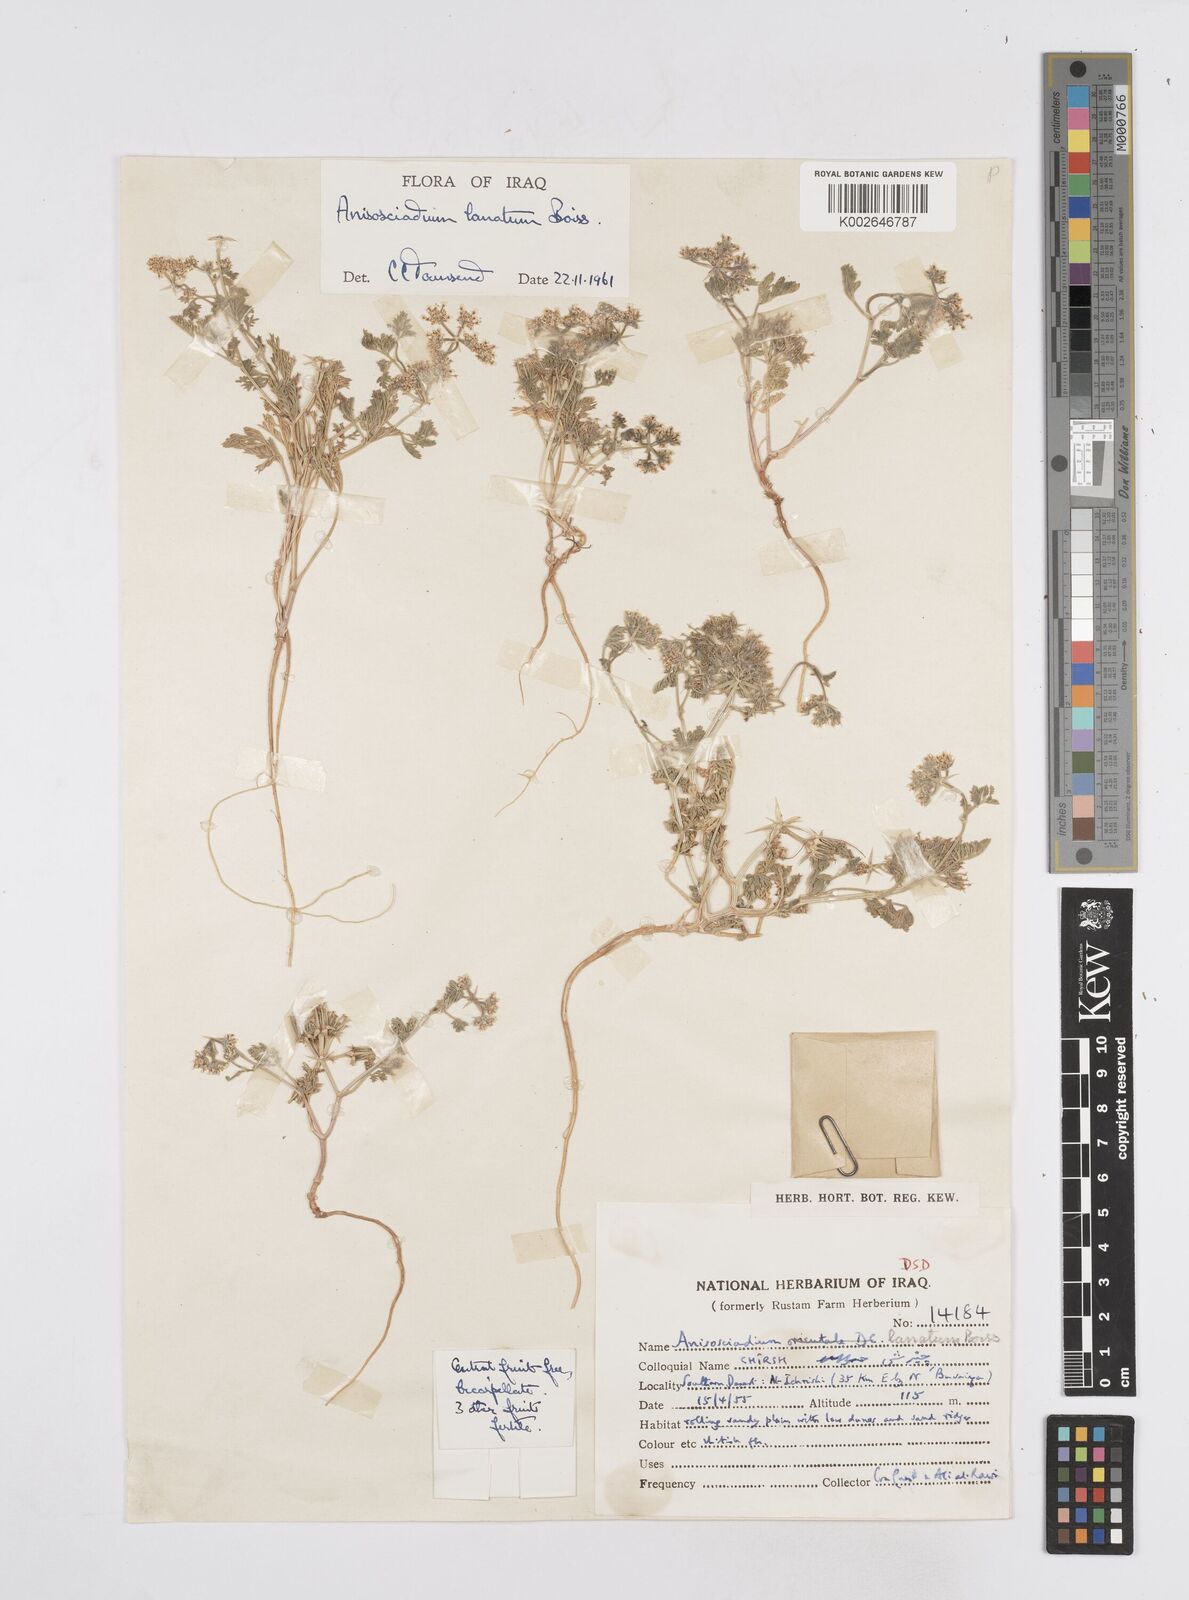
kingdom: Plantae
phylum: Tracheophyta
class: Magnoliopsida
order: Apiales
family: Apiaceae
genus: Anisosciadium
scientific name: Anisosciadium lanatum
